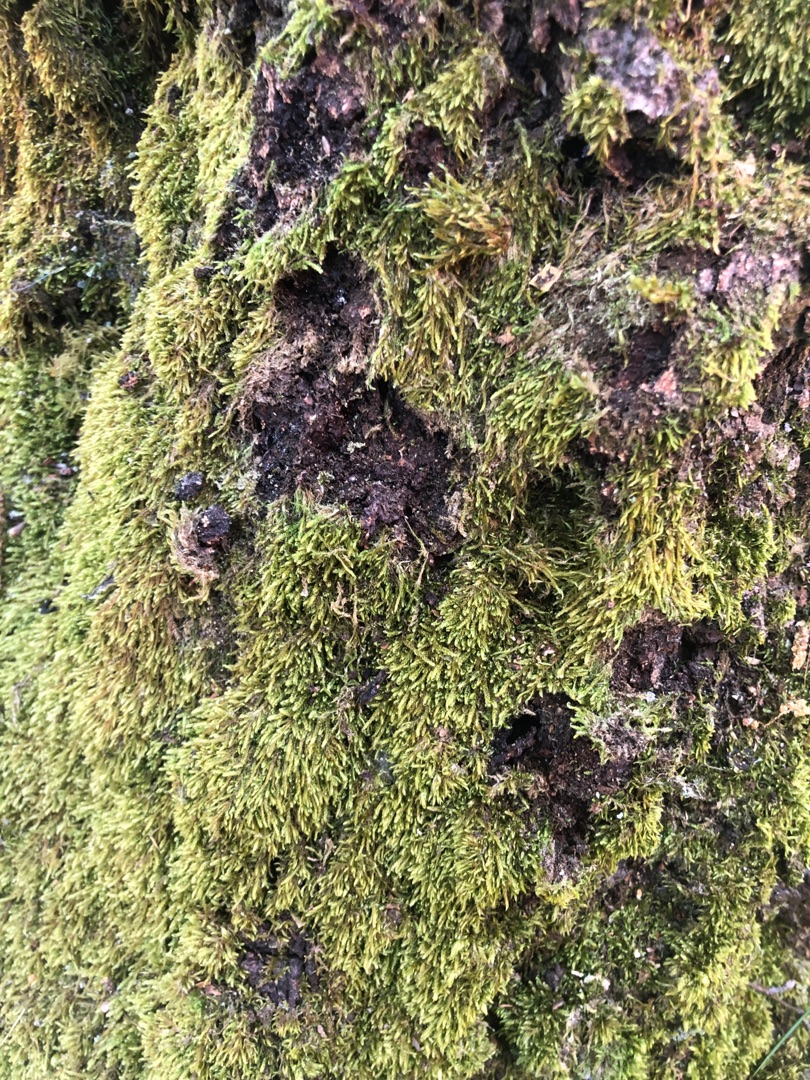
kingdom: Plantae
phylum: Bryophyta
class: Bryopsida
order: Hypnales
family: Hypnaceae
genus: Hypnum
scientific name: Hypnum
